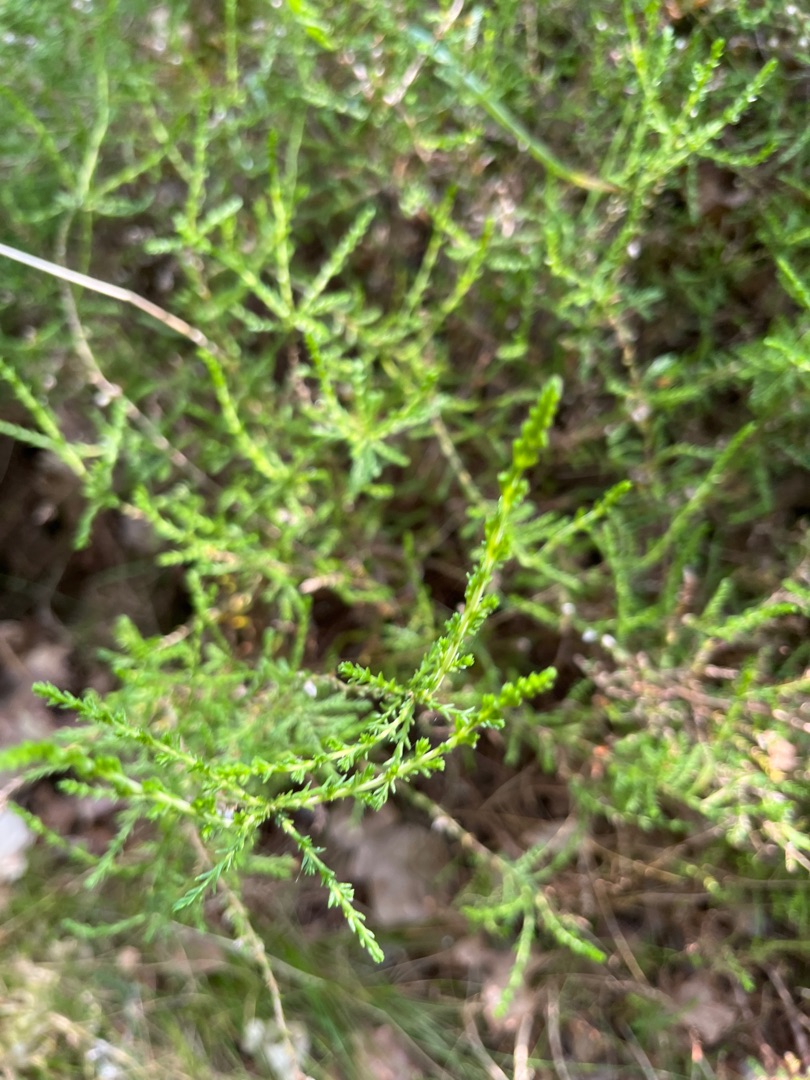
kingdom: Plantae
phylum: Tracheophyta
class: Magnoliopsida
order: Ericales
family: Ericaceae
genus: Calluna
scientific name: Calluna vulgaris
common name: Hedelyng
